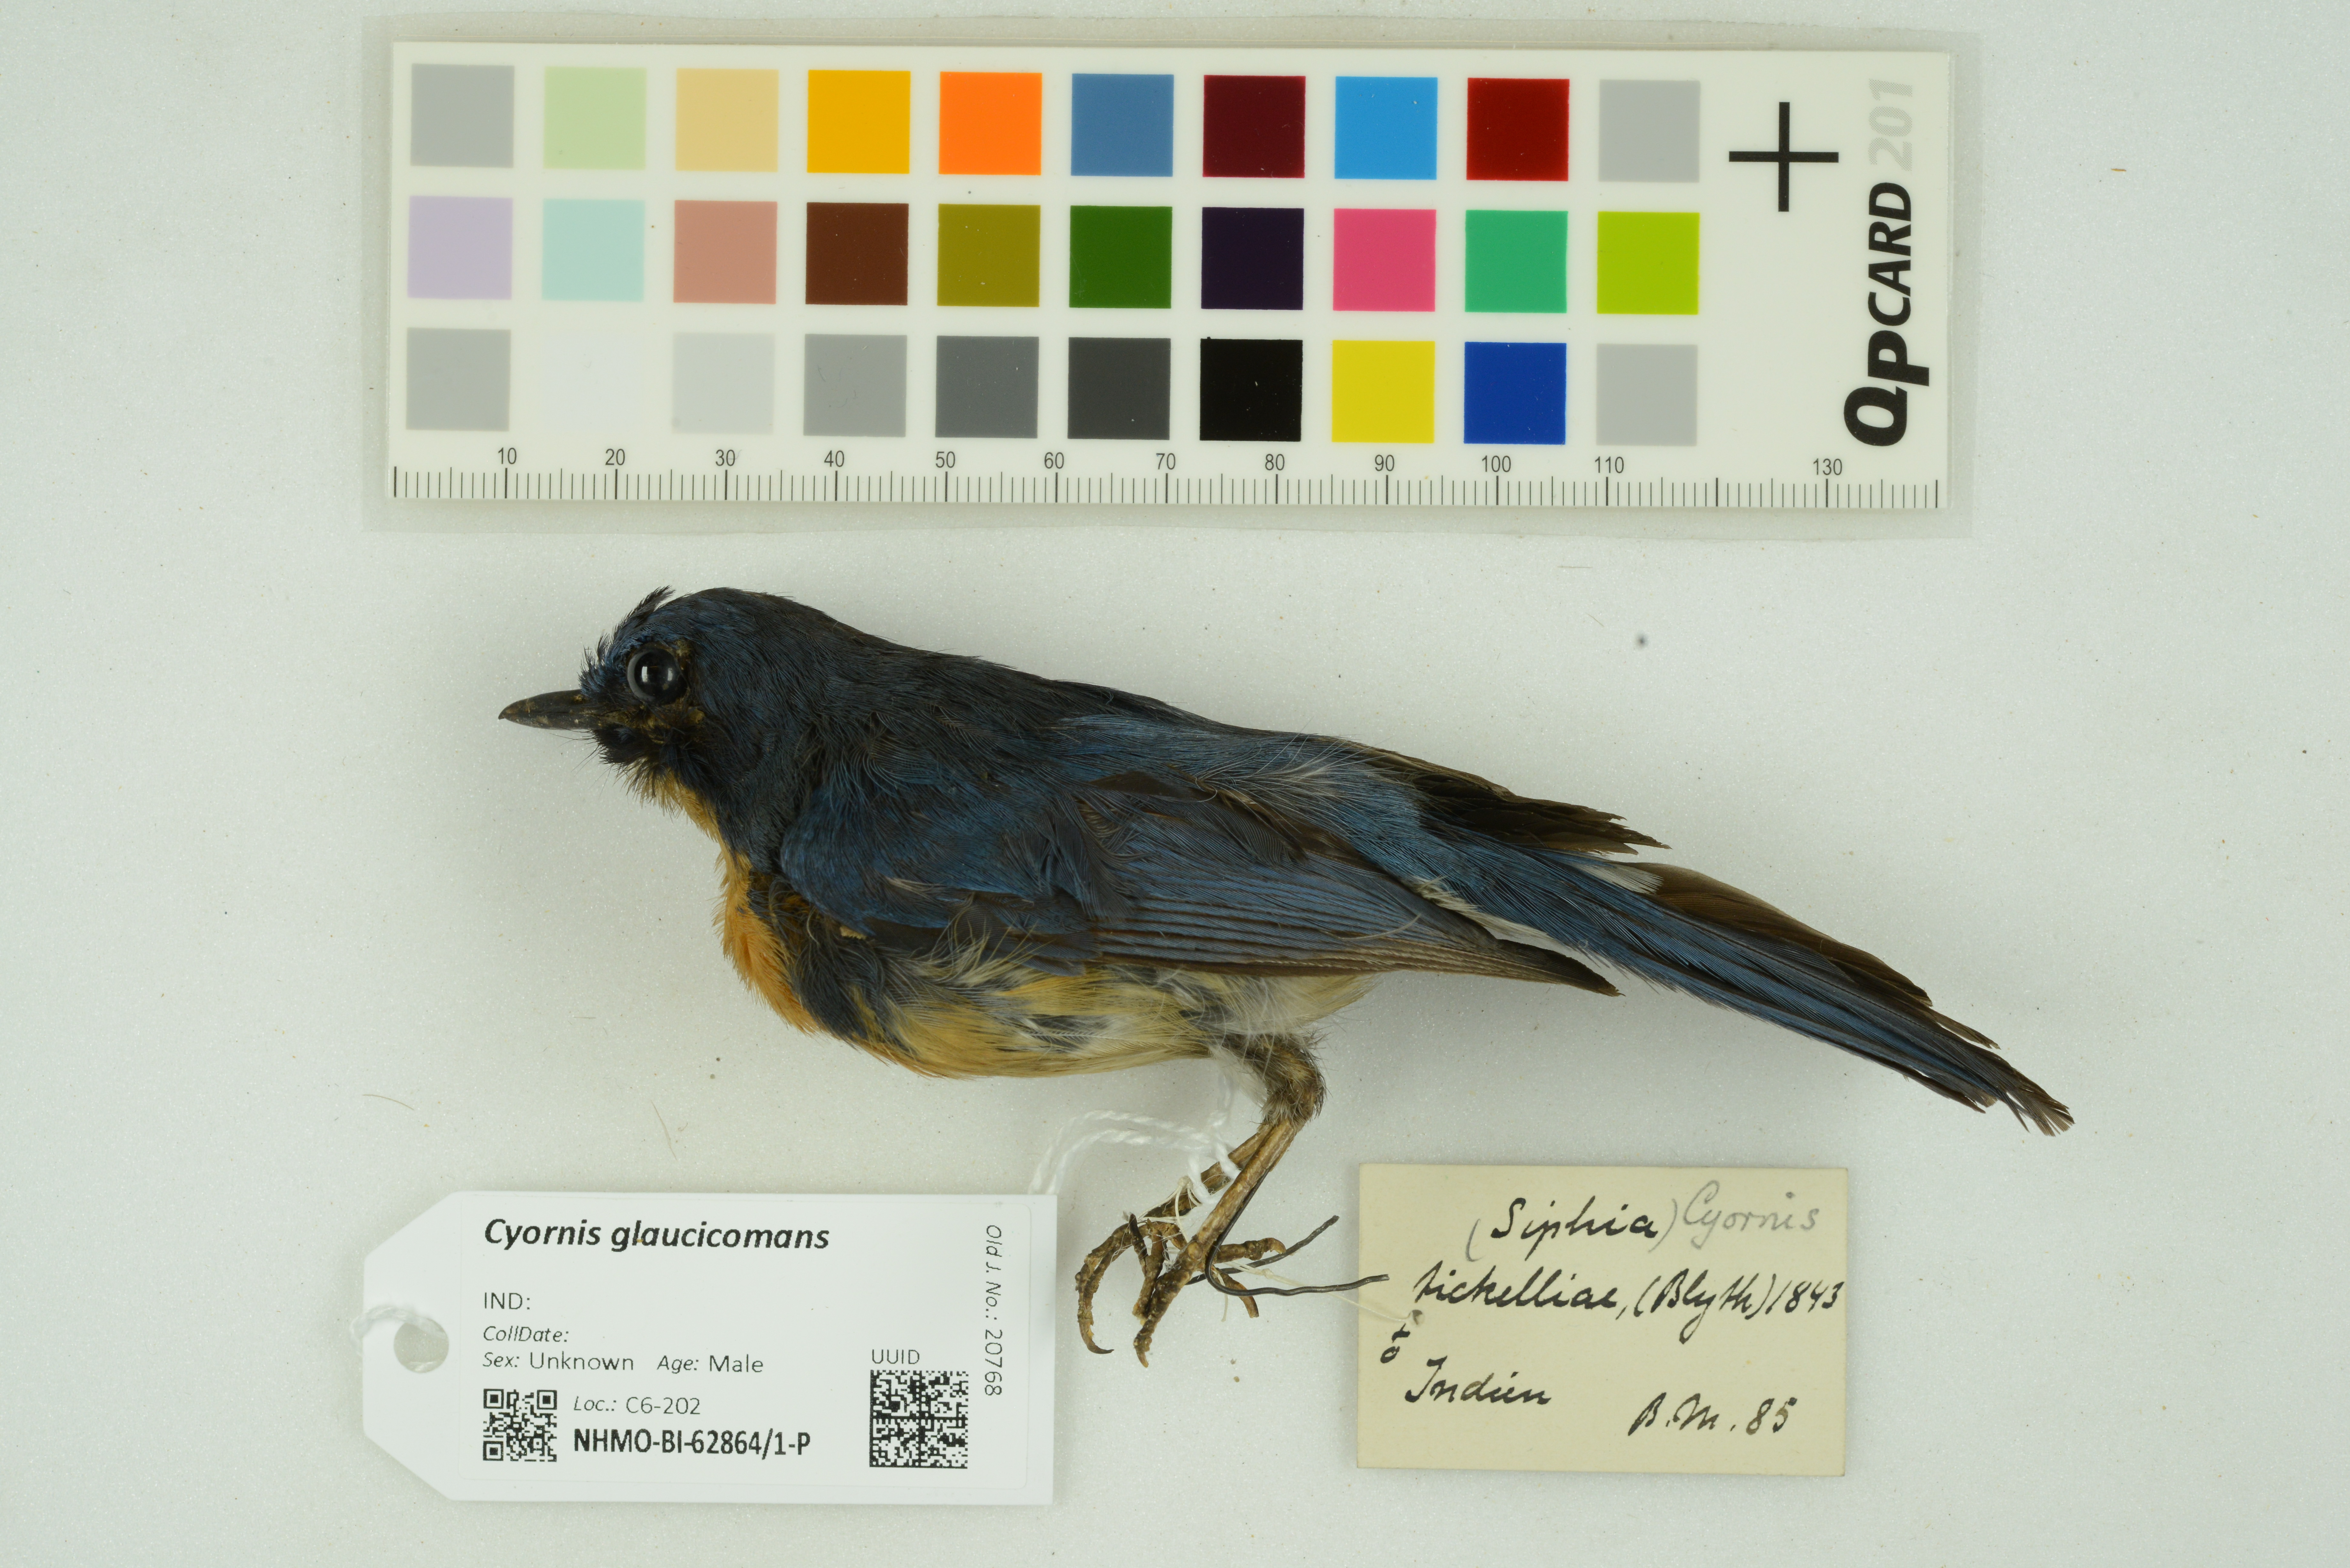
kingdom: Animalia
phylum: Chordata
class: Aves
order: Passeriformes
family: Muscicapidae
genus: Cyornis
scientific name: Cyornis glaucicomans
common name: Chinese blue flycatcher
